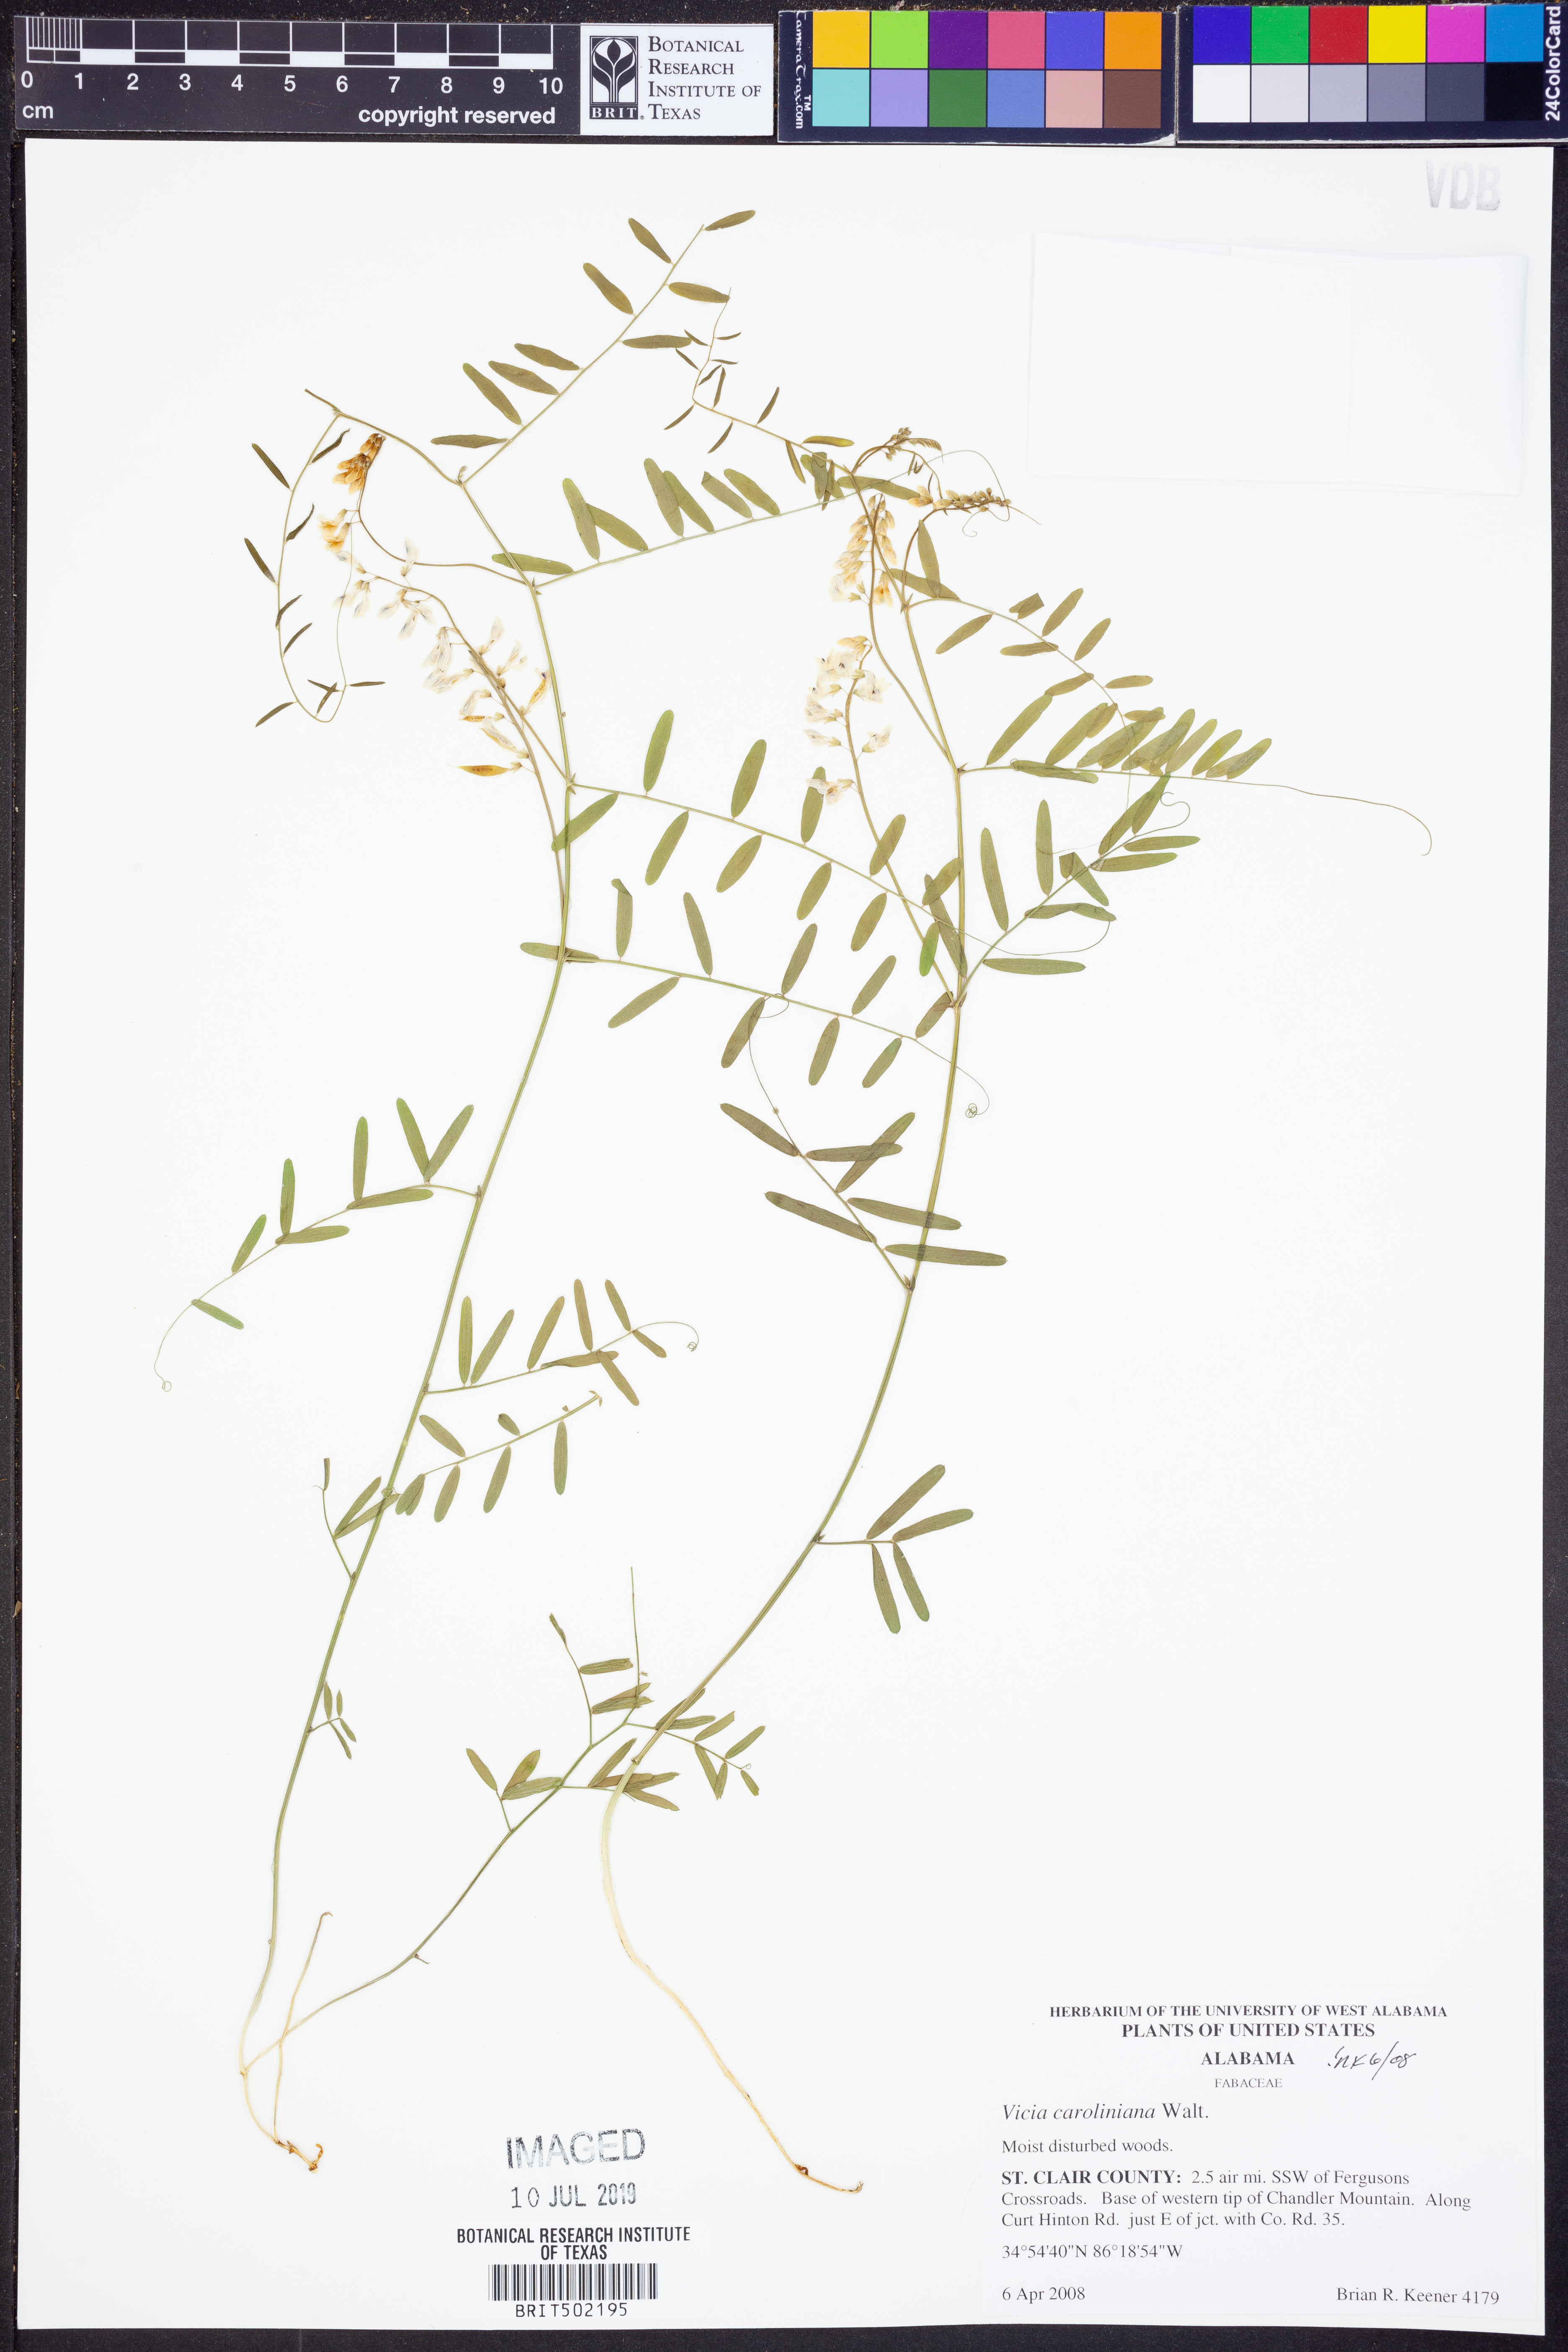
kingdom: Plantae
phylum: Tracheophyta
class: Magnoliopsida
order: Fabales
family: Fabaceae
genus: Vicia
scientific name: Vicia caroliniana
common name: Carolina vetch
